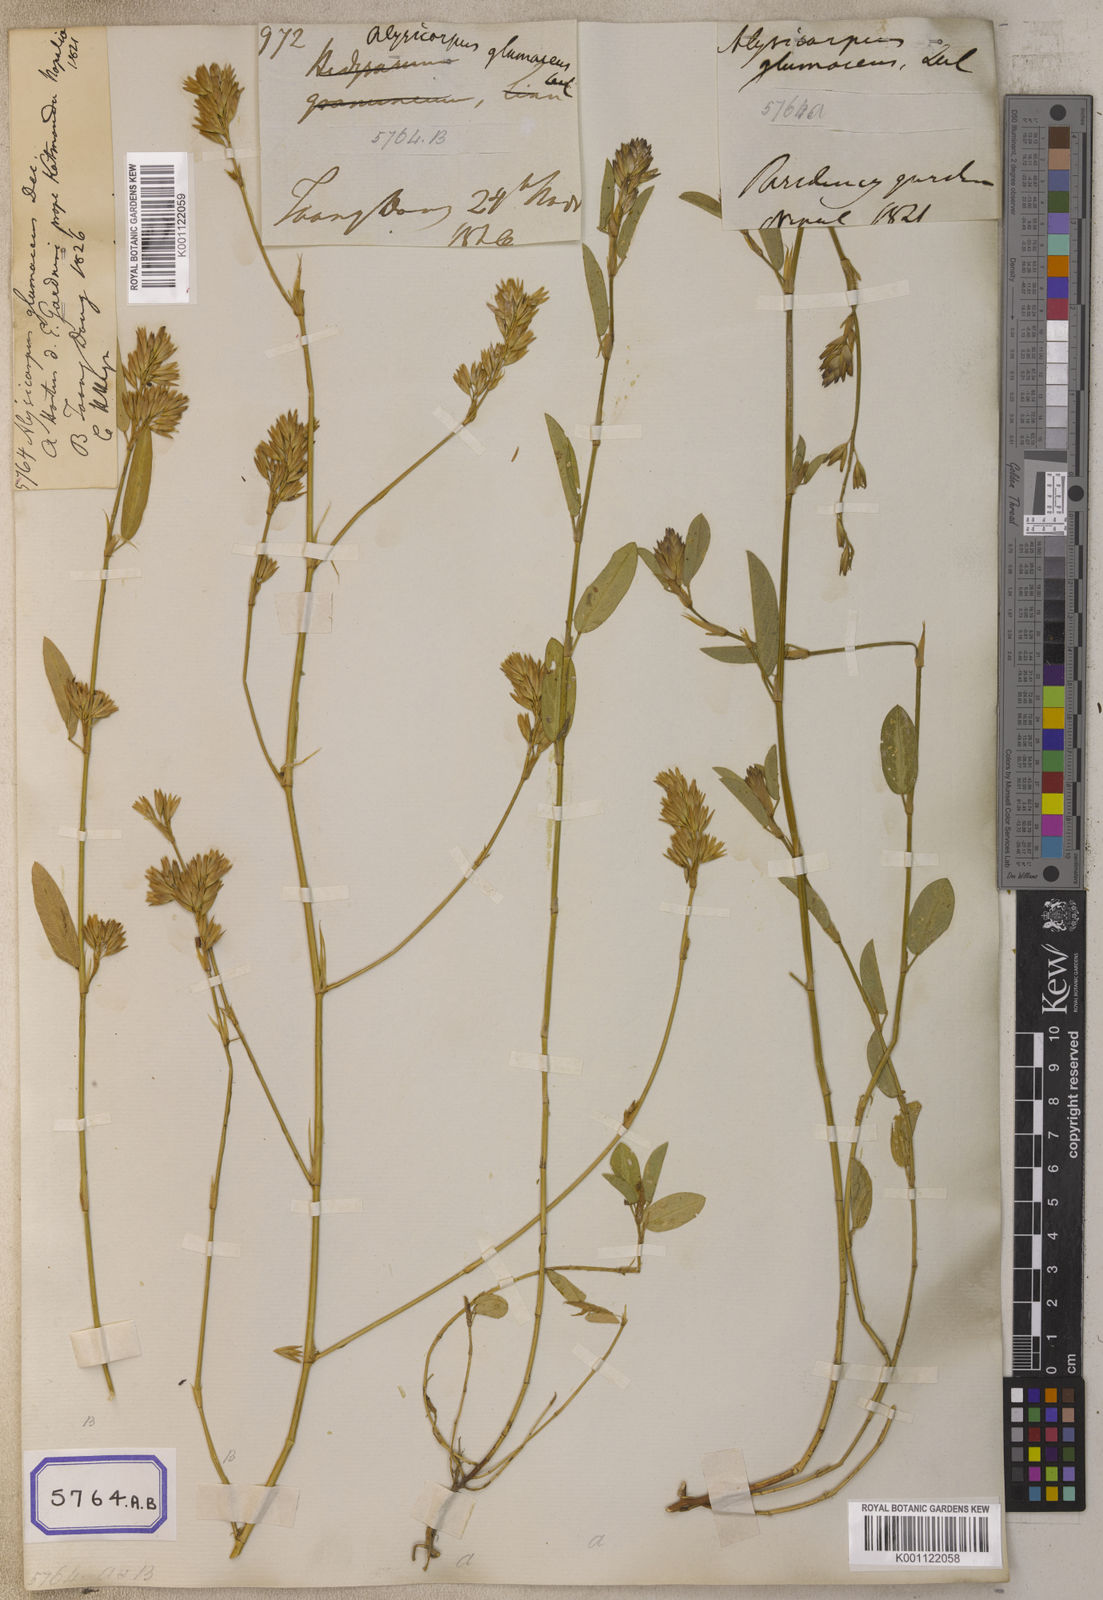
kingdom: Plantae
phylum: Tracheophyta
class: Magnoliopsida
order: Fabales
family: Fabaceae
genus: Alysicarpus
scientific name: Alysicarpus glumaceus
